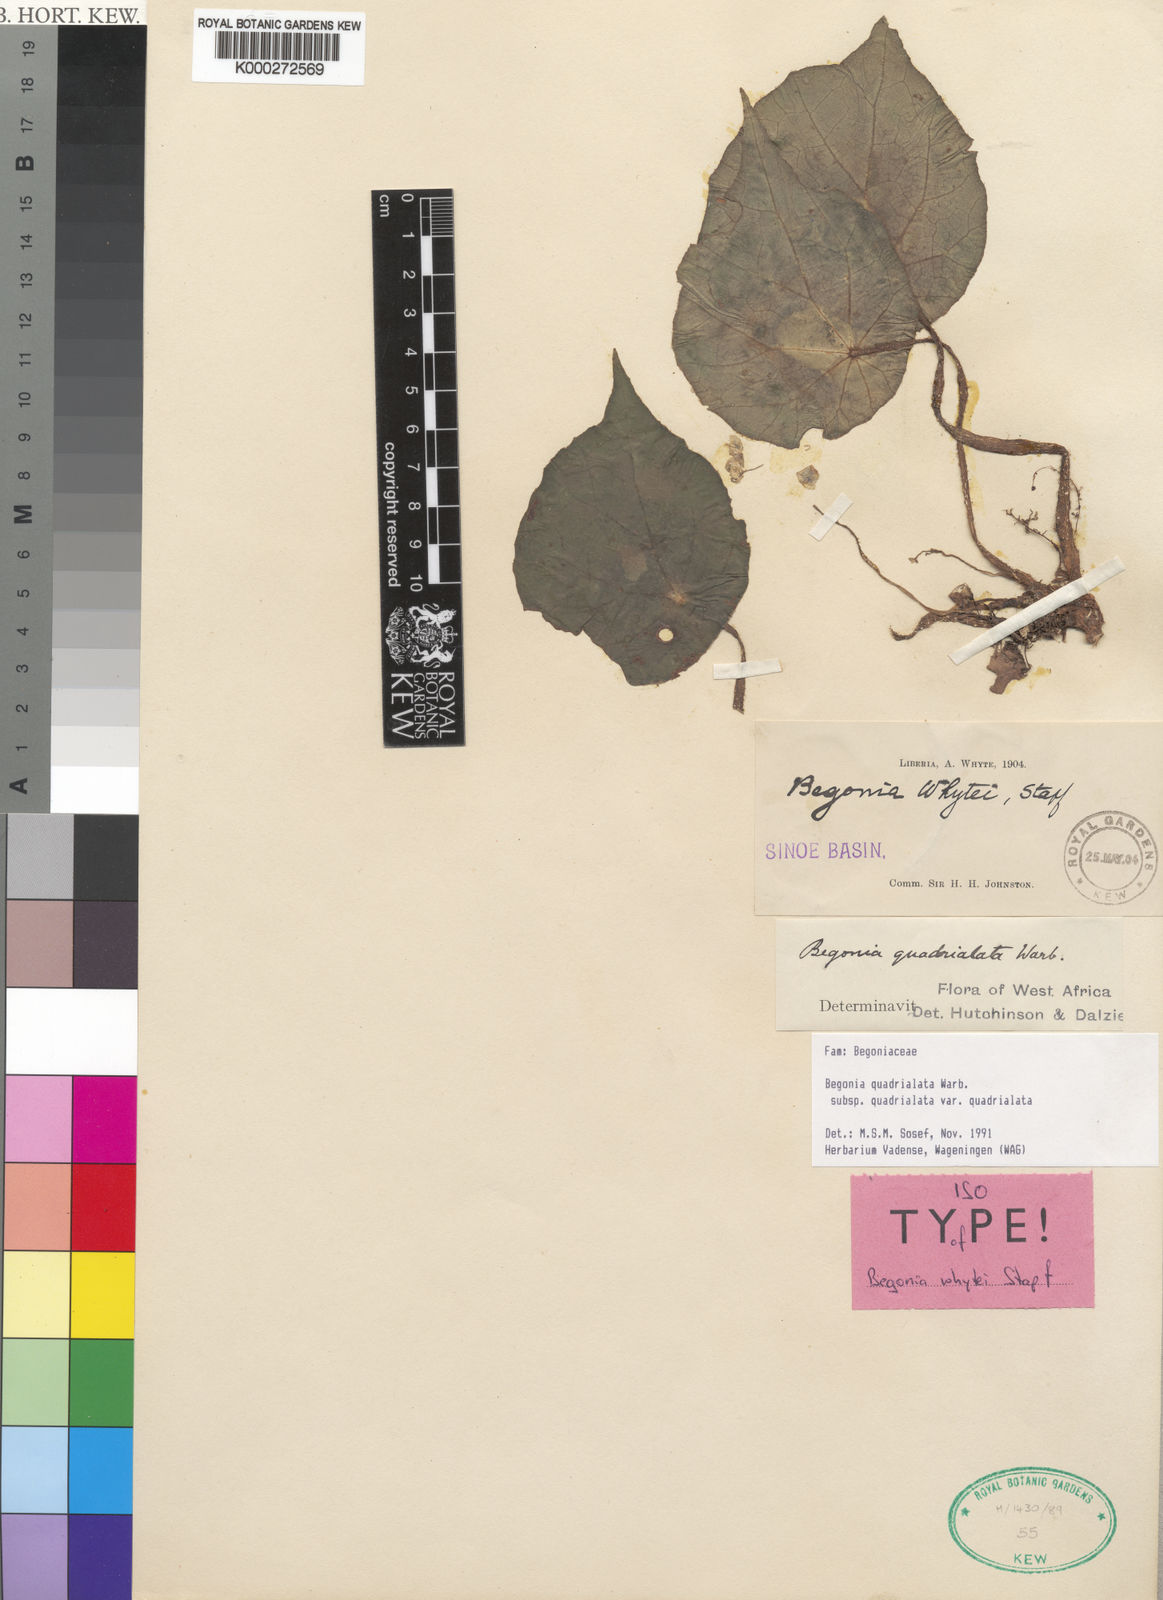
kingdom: Plantae
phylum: Tracheophyta
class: Magnoliopsida
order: Cucurbitales
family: Begoniaceae
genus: Begonia
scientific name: Begonia quadrialata
